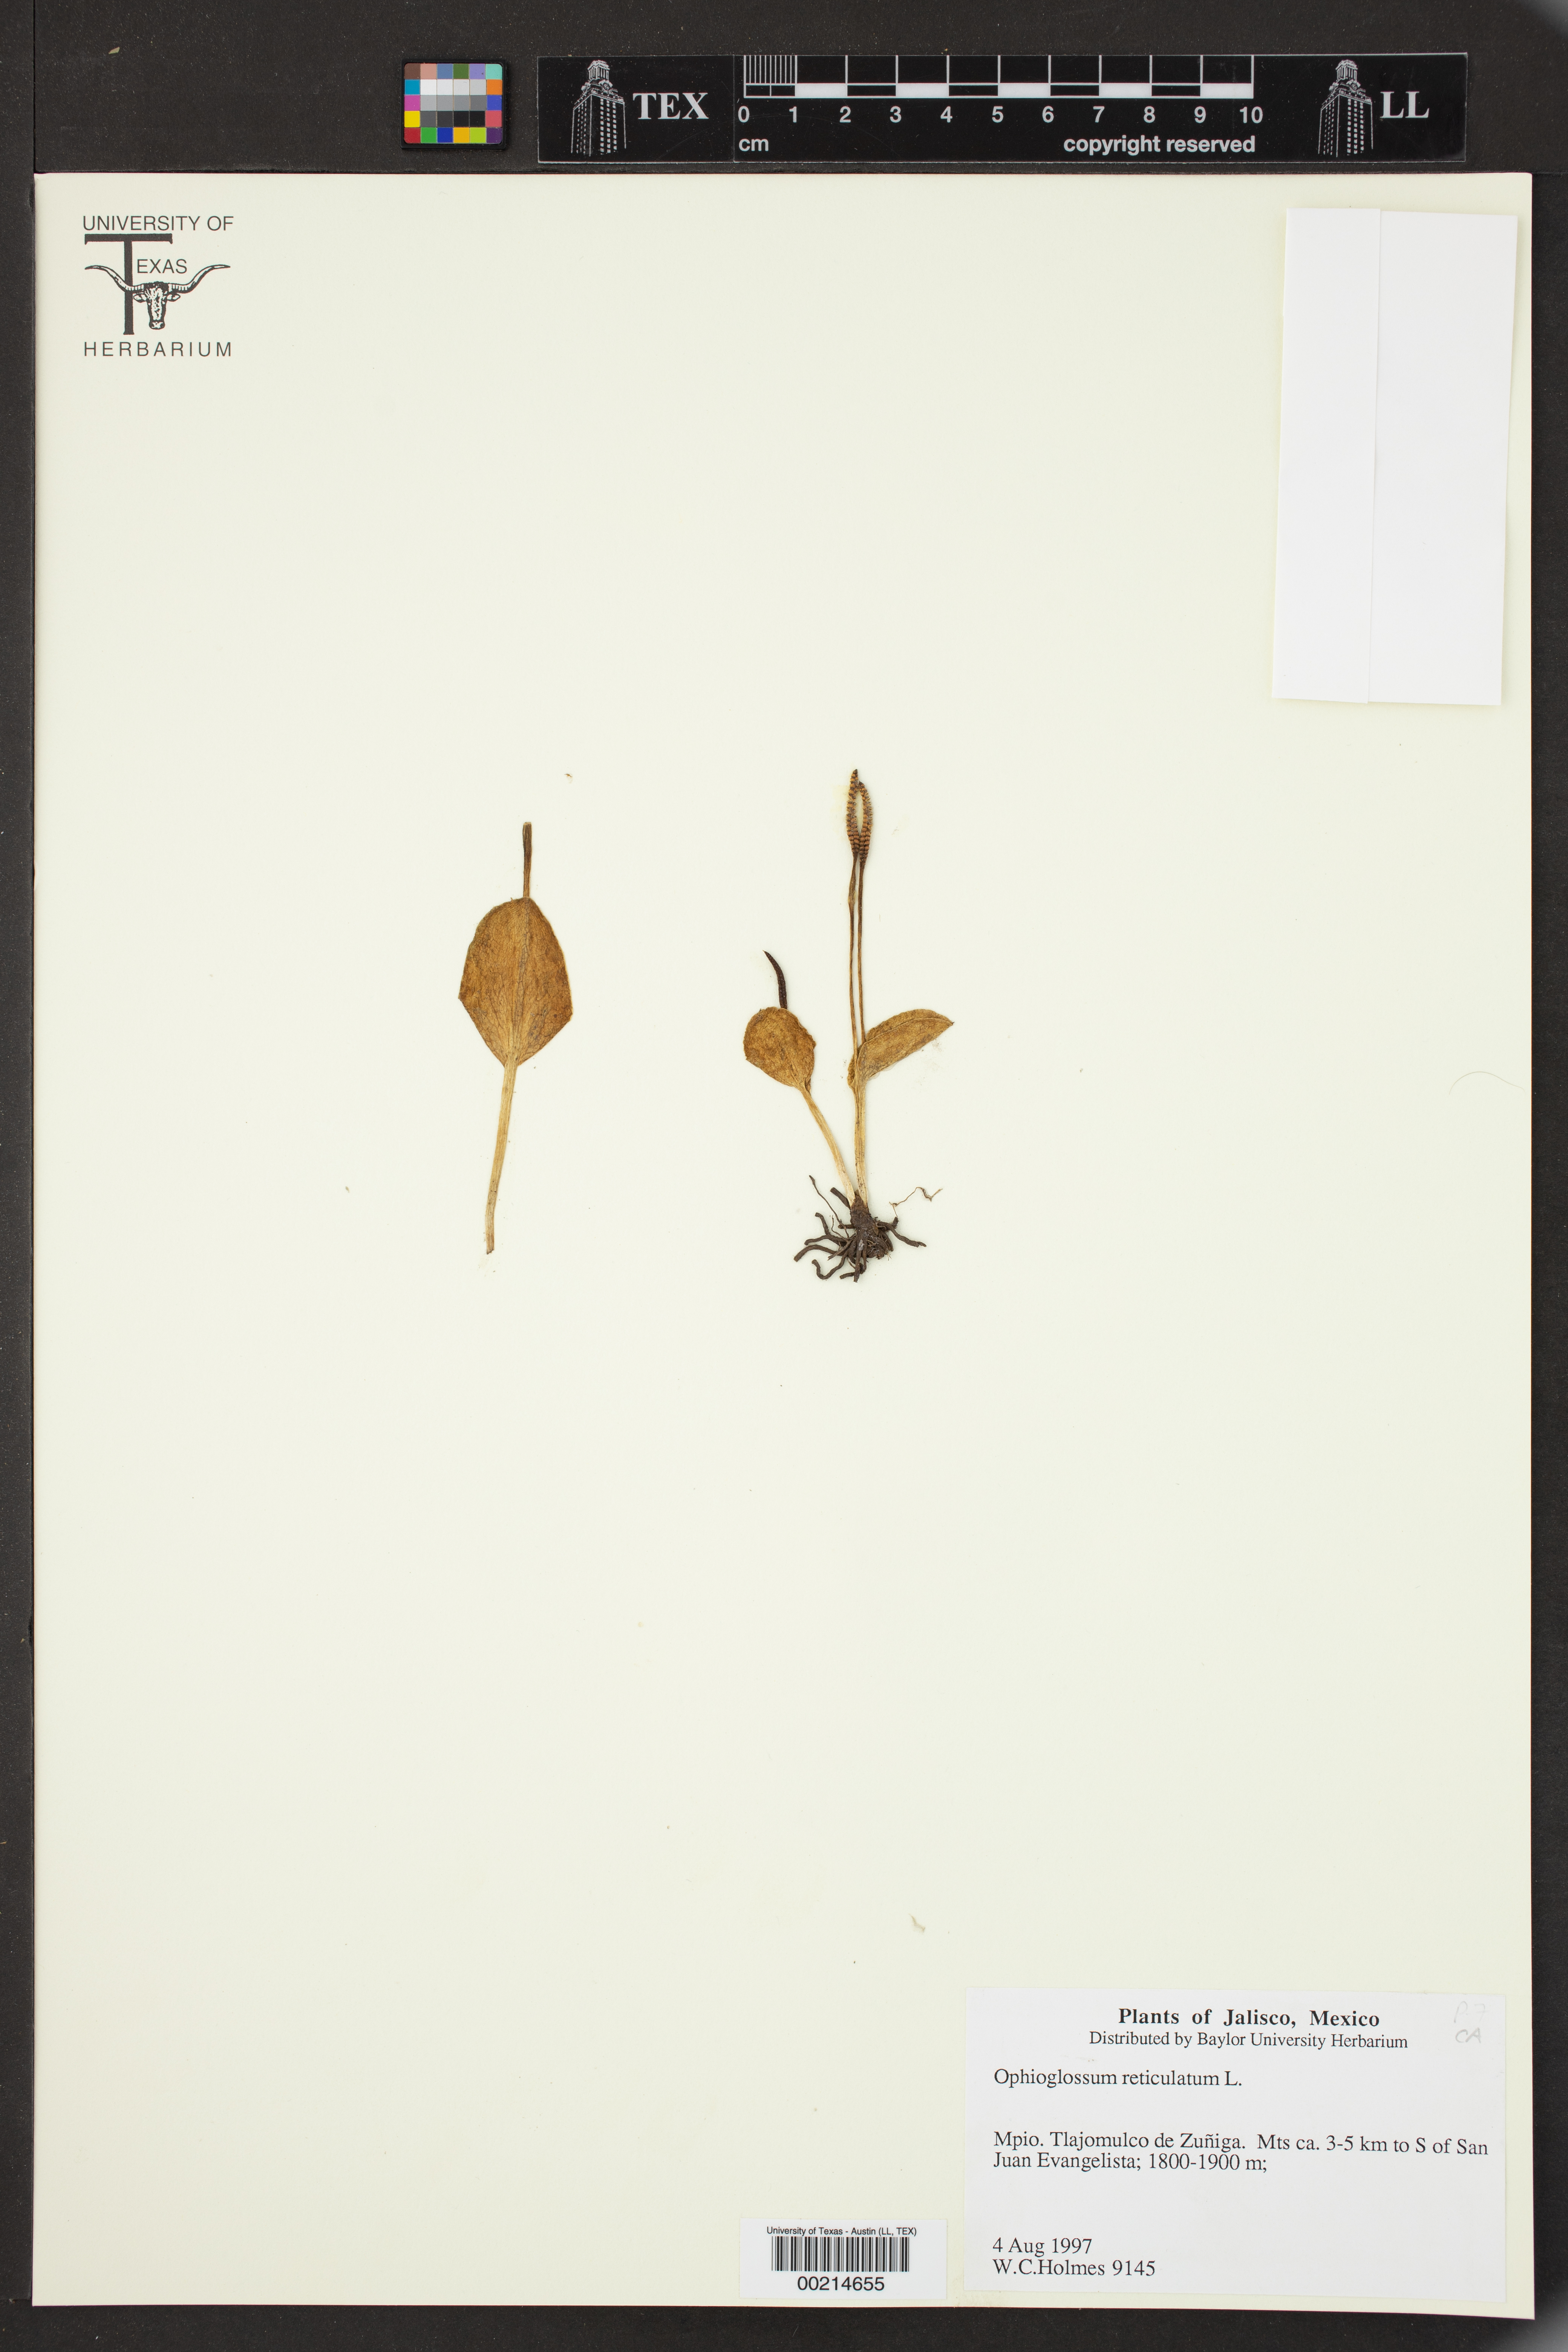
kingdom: Plantae
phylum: Tracheophyta
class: Polypodiopsida
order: Ophioglossales
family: Ophioglossaceae
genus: Ophioglossum
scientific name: Ophioglossum reticulatum
